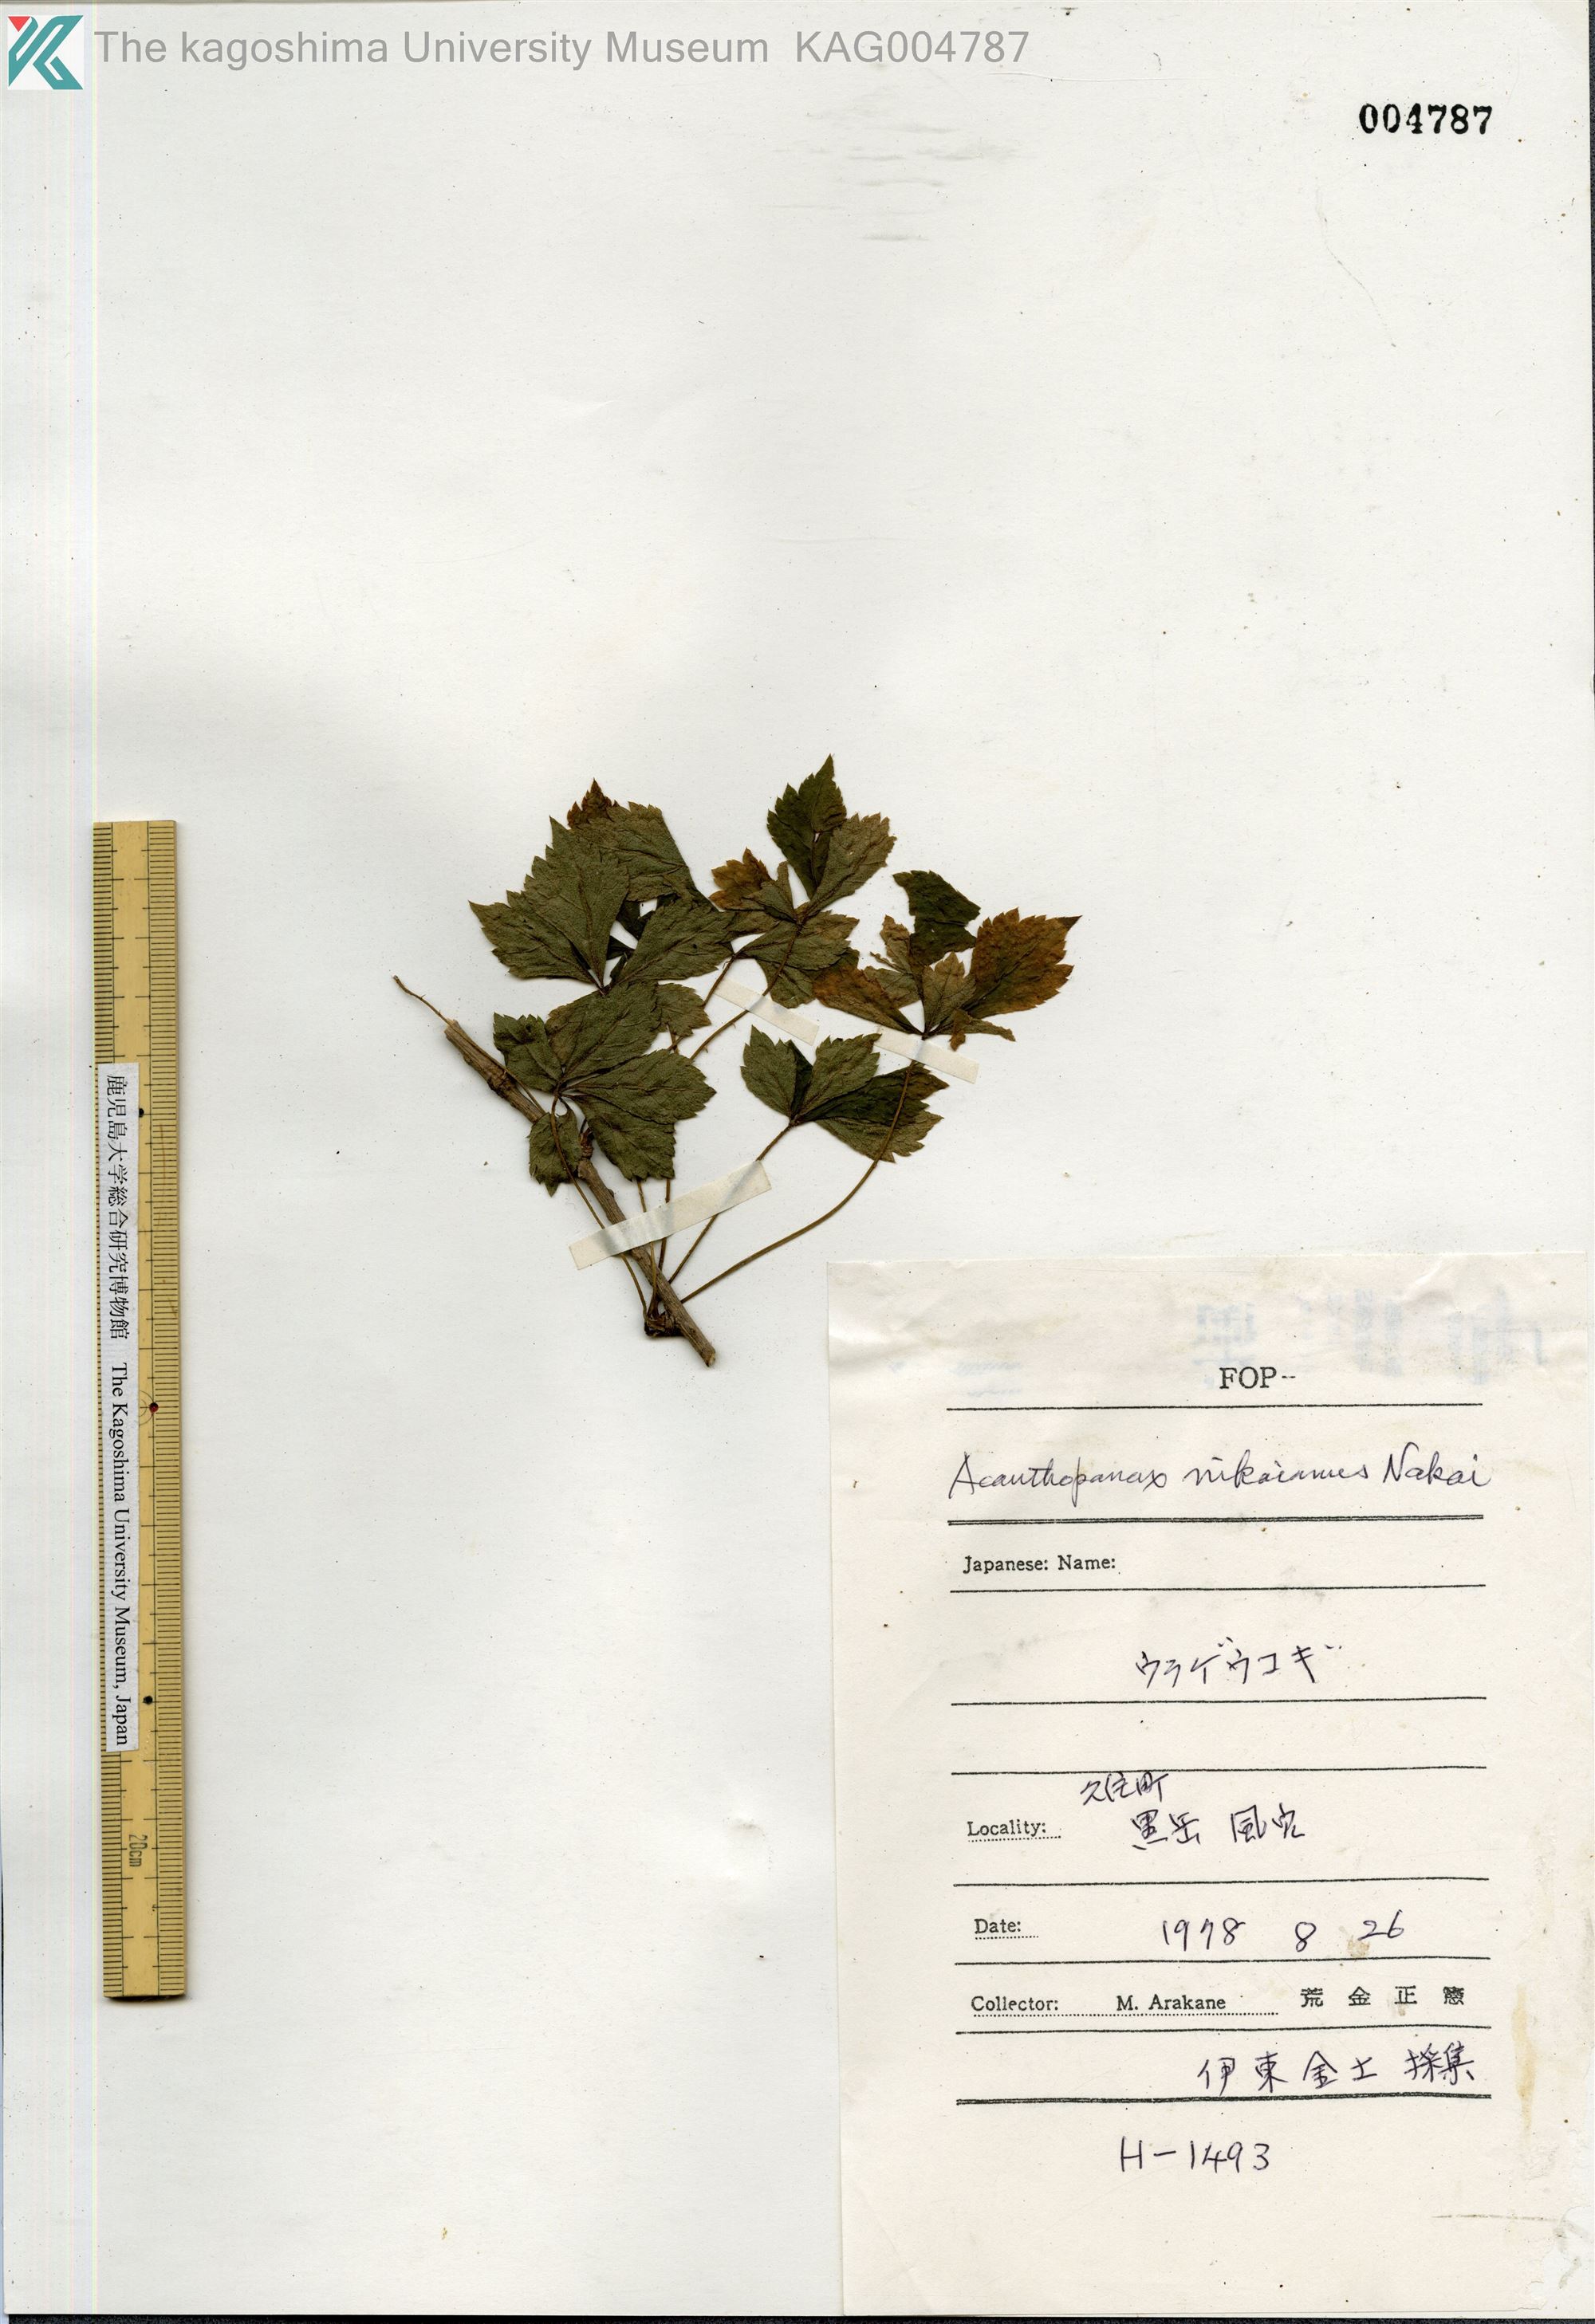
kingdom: Plantae
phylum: Tracheophyta
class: Magnoliopsida
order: Apiales
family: Araliaceae
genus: Eleutherococcus
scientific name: Eleutherococcus nikaianus
